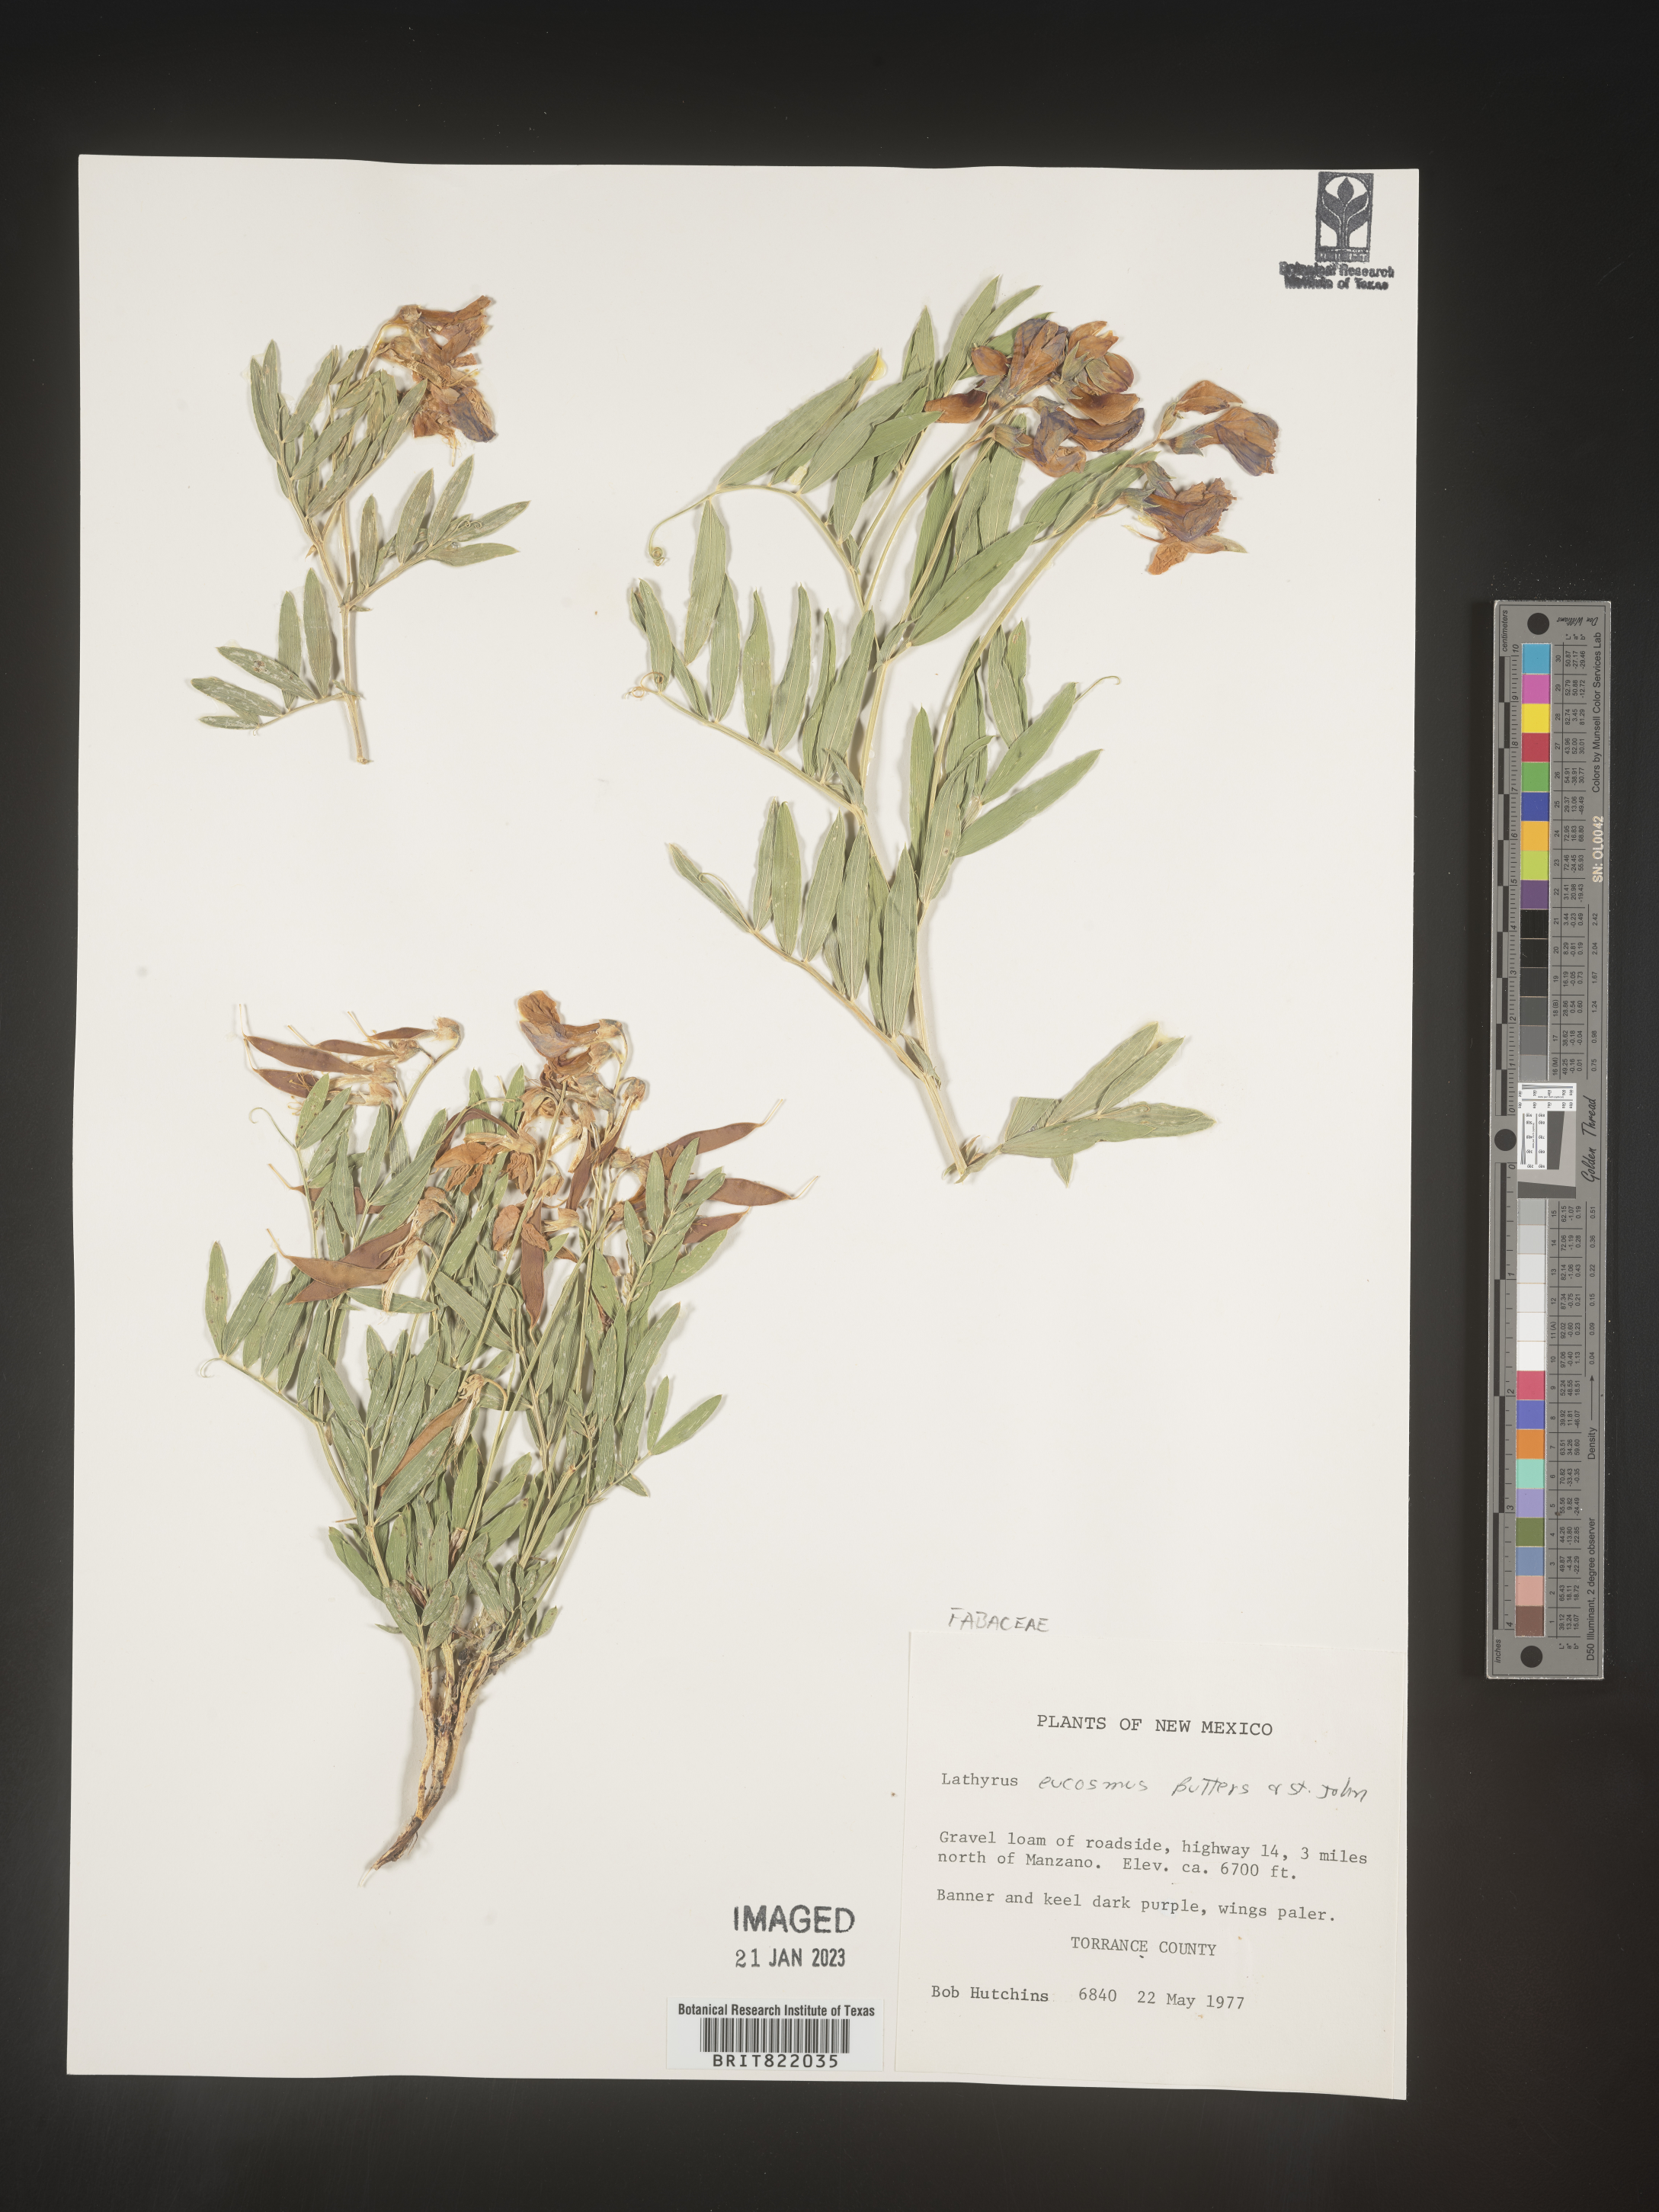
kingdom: Plantae
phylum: Tracheophyta
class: Magnoliopsida
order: Fabales
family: Fabaceae
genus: Lathyrus
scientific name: Lathyrus
